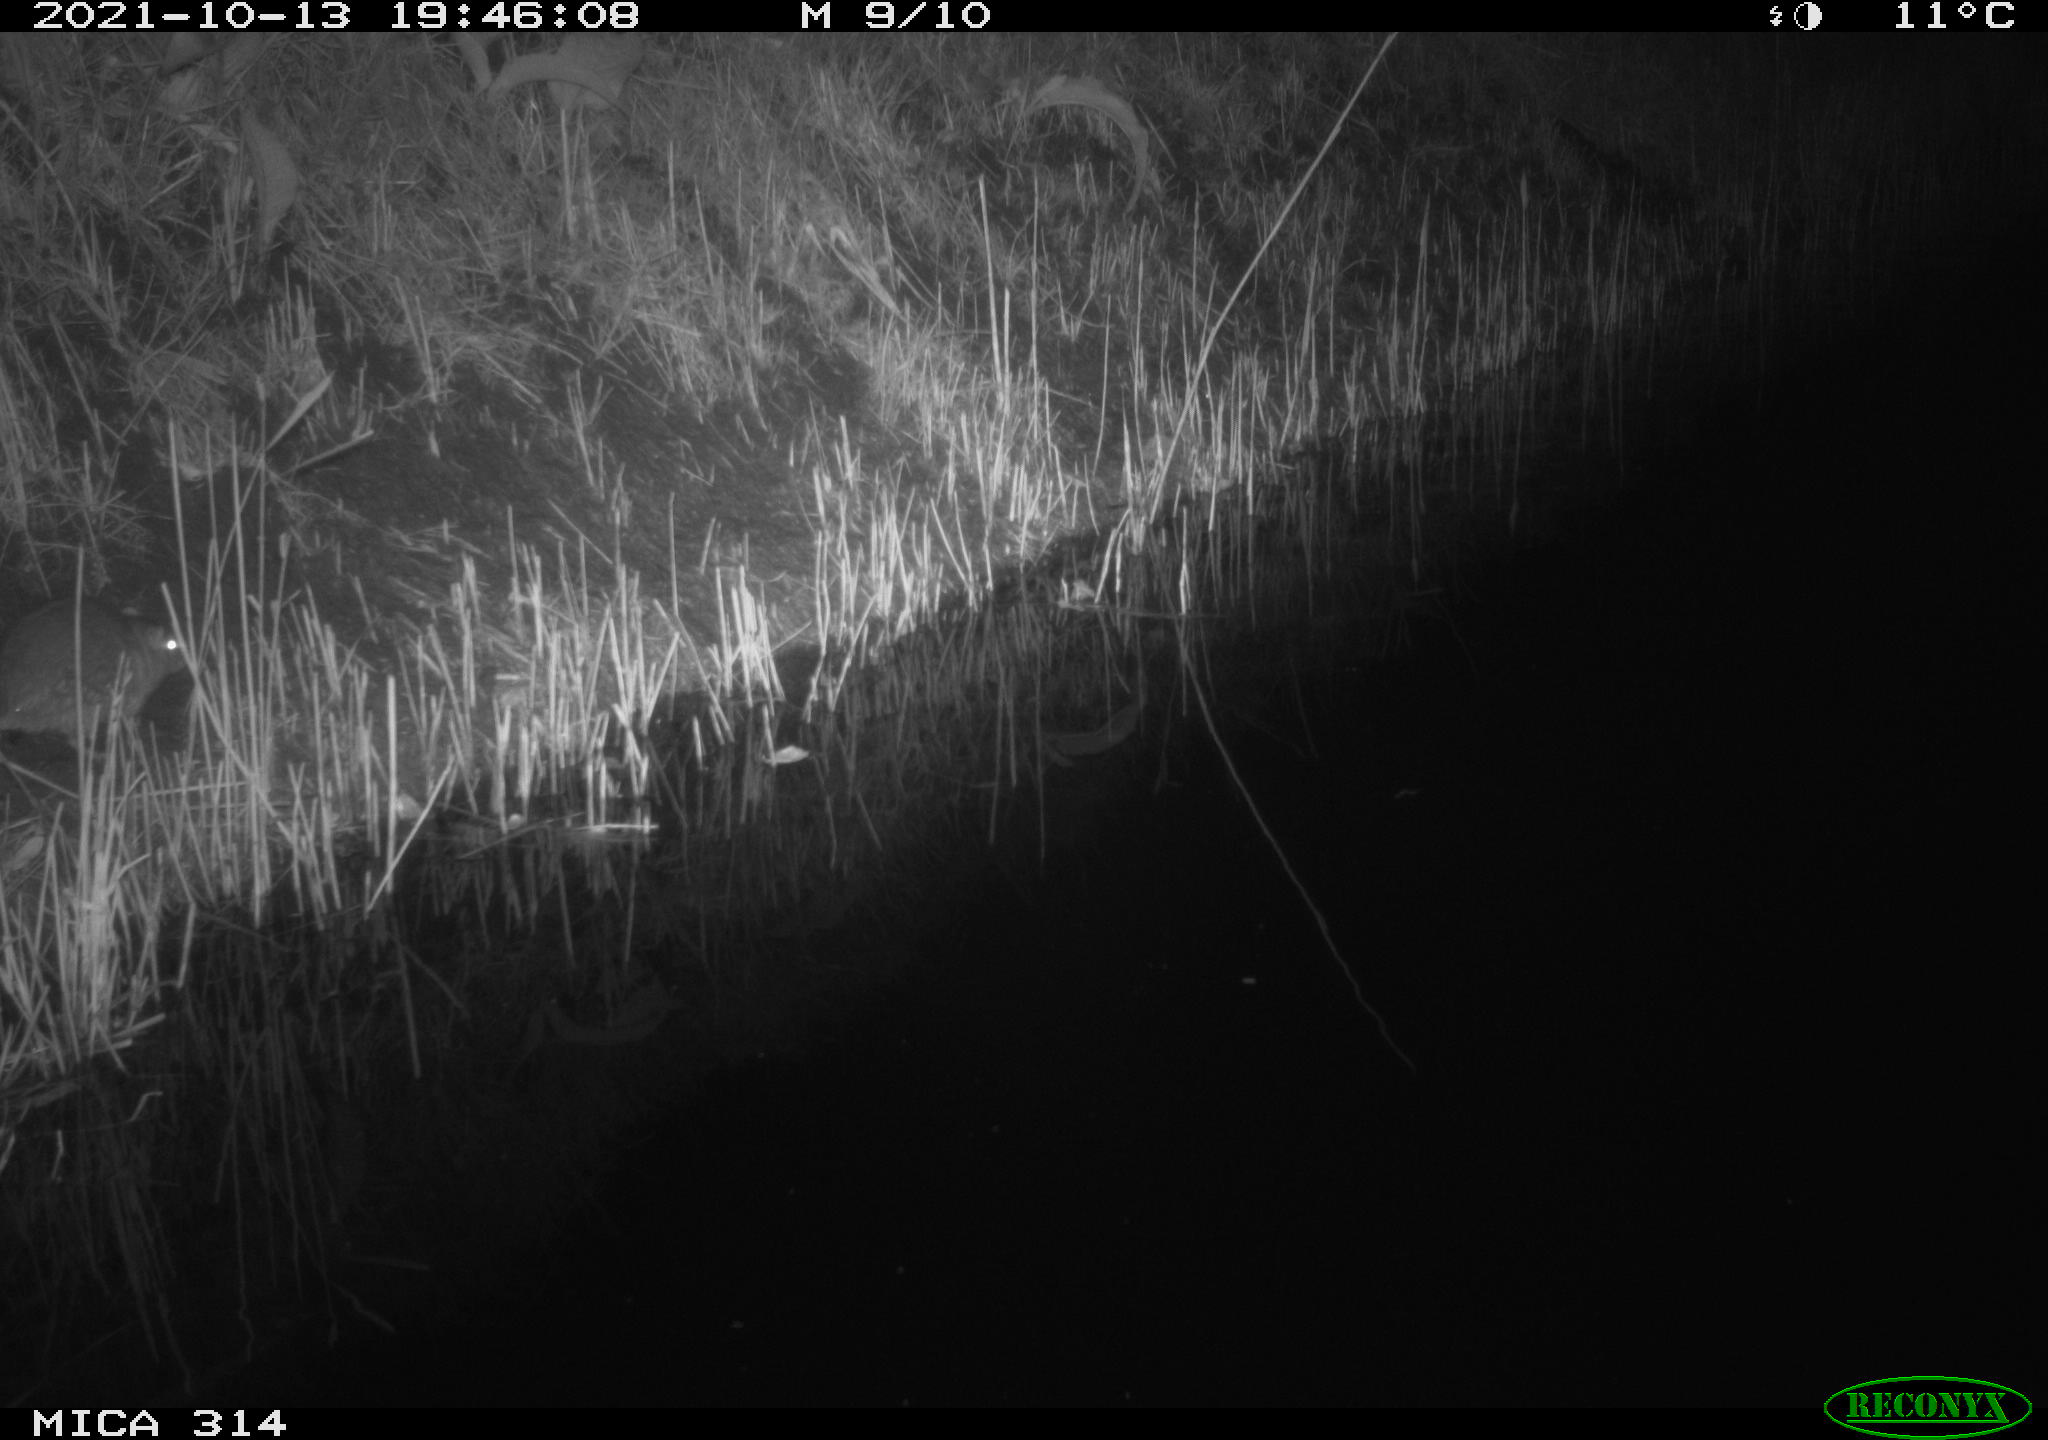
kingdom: Animalia
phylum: Chordata
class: Mammalia
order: Rodentia
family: Muridae
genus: Rattus
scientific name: Rattus norvegicus
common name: Brown rat
